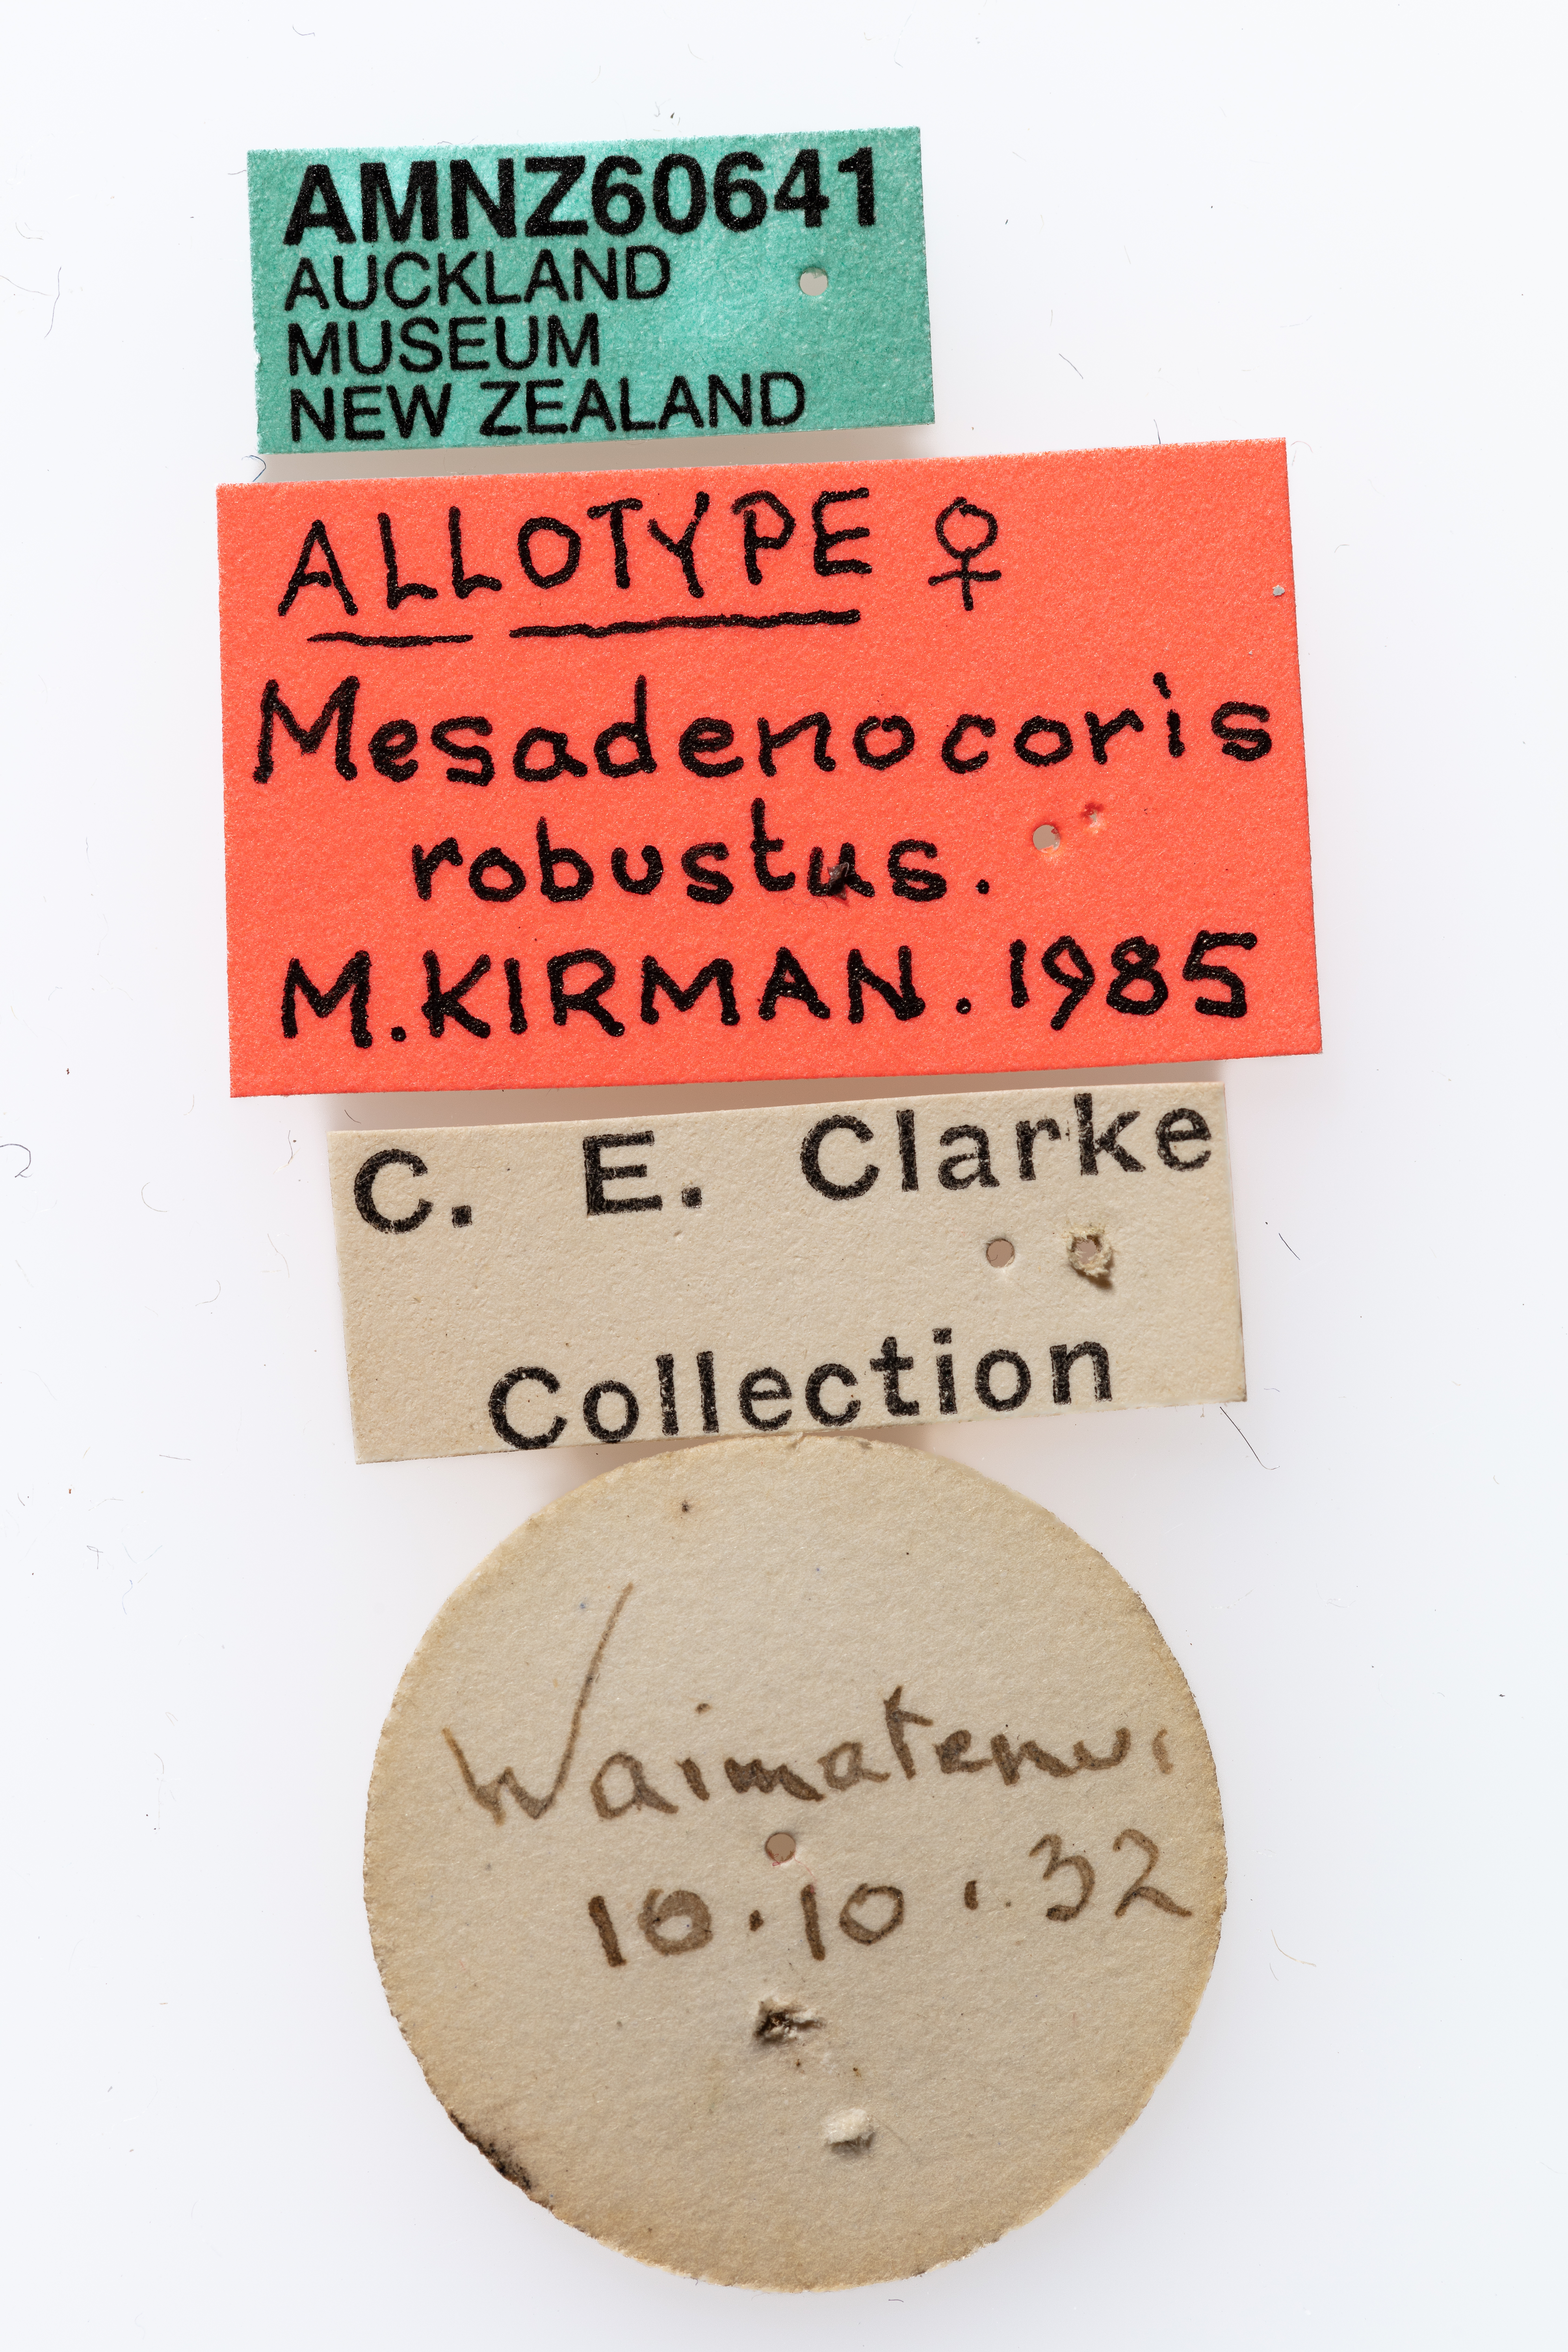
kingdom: Animalia
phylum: Arthropoda
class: Insecta
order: Hemiptera
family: Aradidae
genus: Mesadenocoris
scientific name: Mesadenocoris
